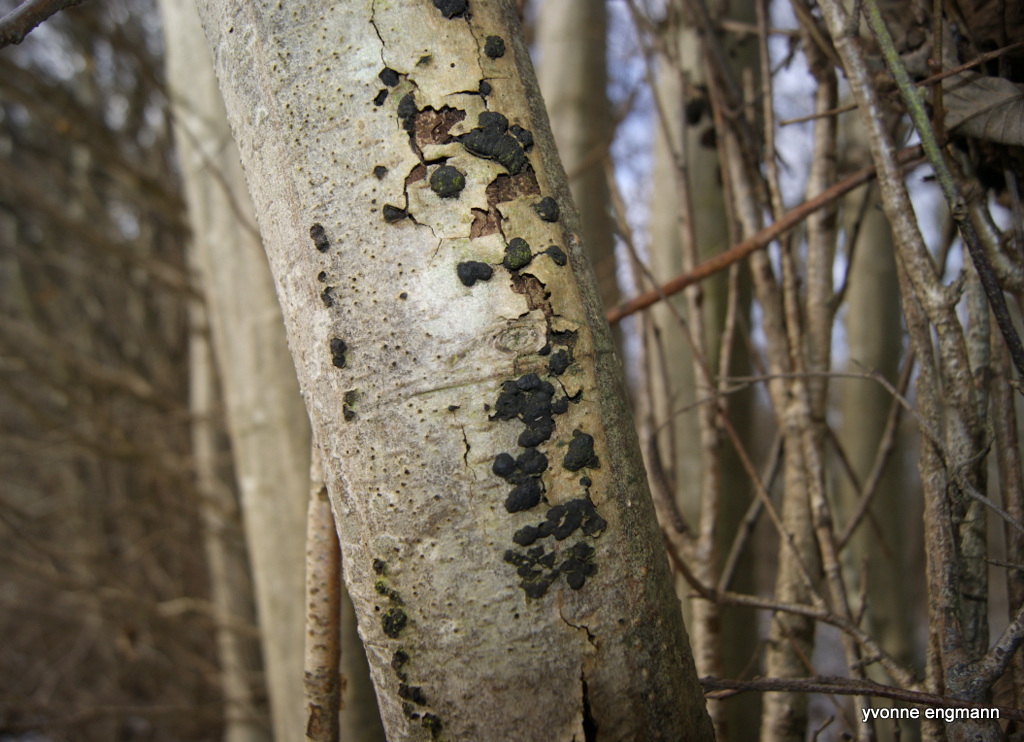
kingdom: Fungi
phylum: Ascomycota
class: Sordariomycetes
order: Xylariales
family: Hypoxylaceae
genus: Jackrogersella
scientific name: Jackrogersella multiformis
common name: foranderlig kulbær
